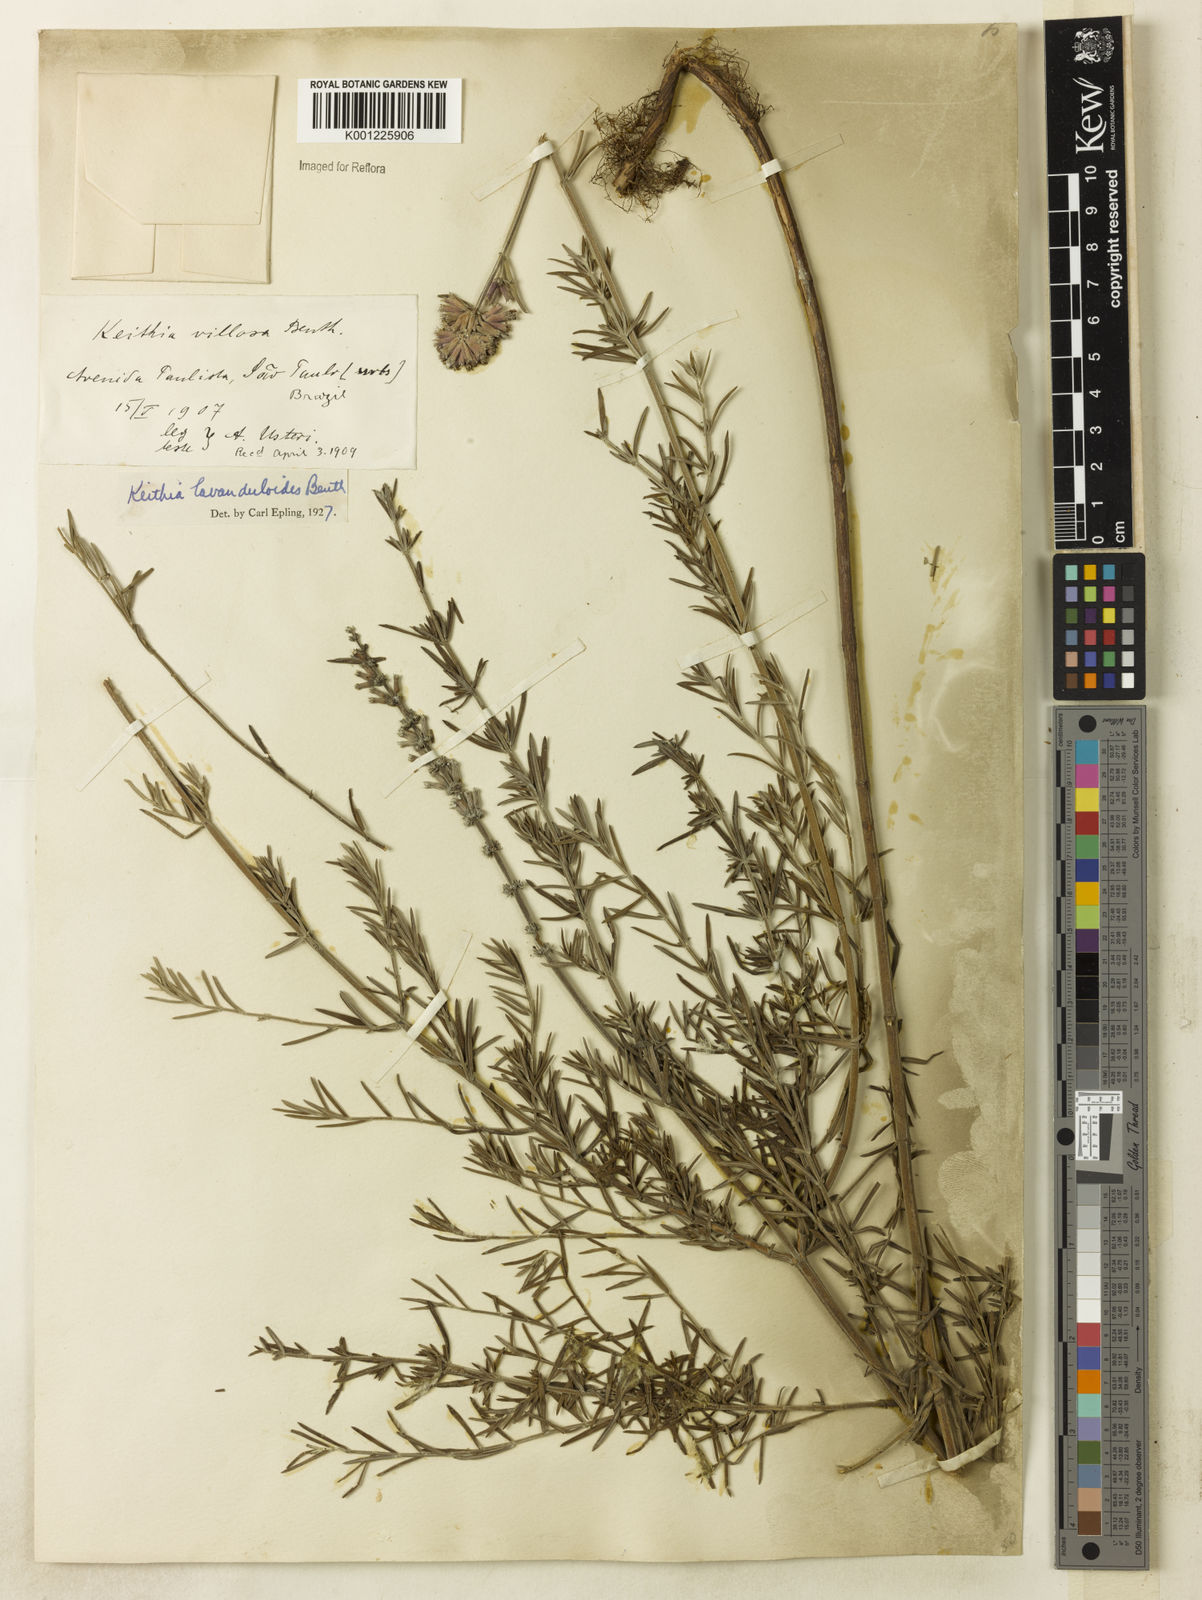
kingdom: Plantae
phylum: Tracheophyta
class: Magnoliopsida
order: Lamiales
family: Lamiaceae
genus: Rhabdocaulon
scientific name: Rhabdocaulon lavanduloides
